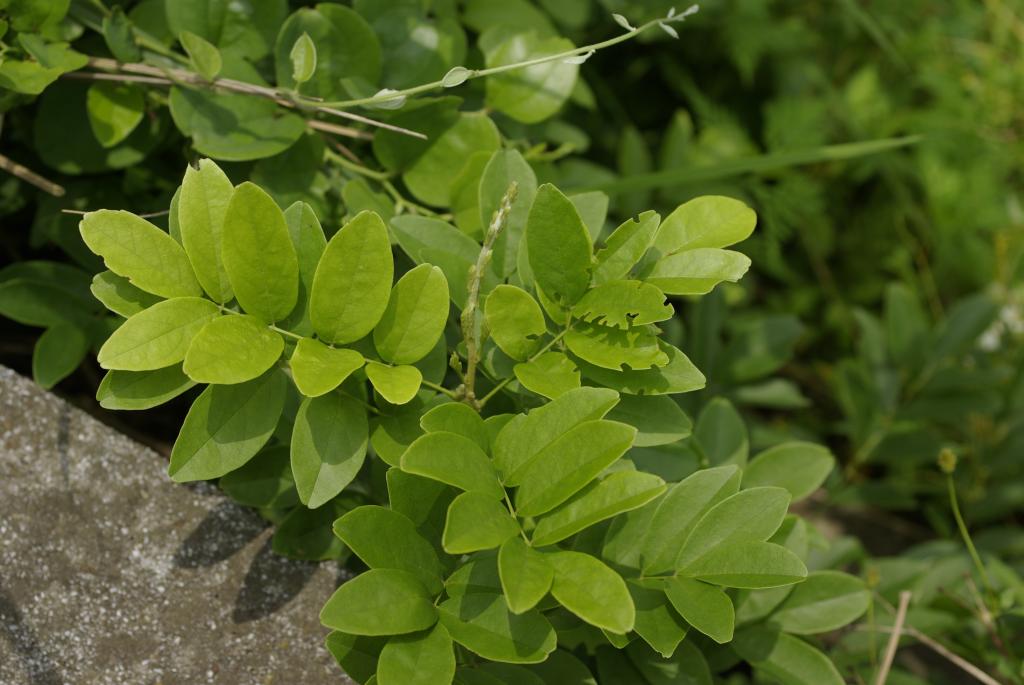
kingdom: Plantae
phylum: Tracheophyta
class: Magnoliopsida
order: Fabales
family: Fabaceae
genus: Wisteriopsis
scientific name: Wisteriopsis reticulata
